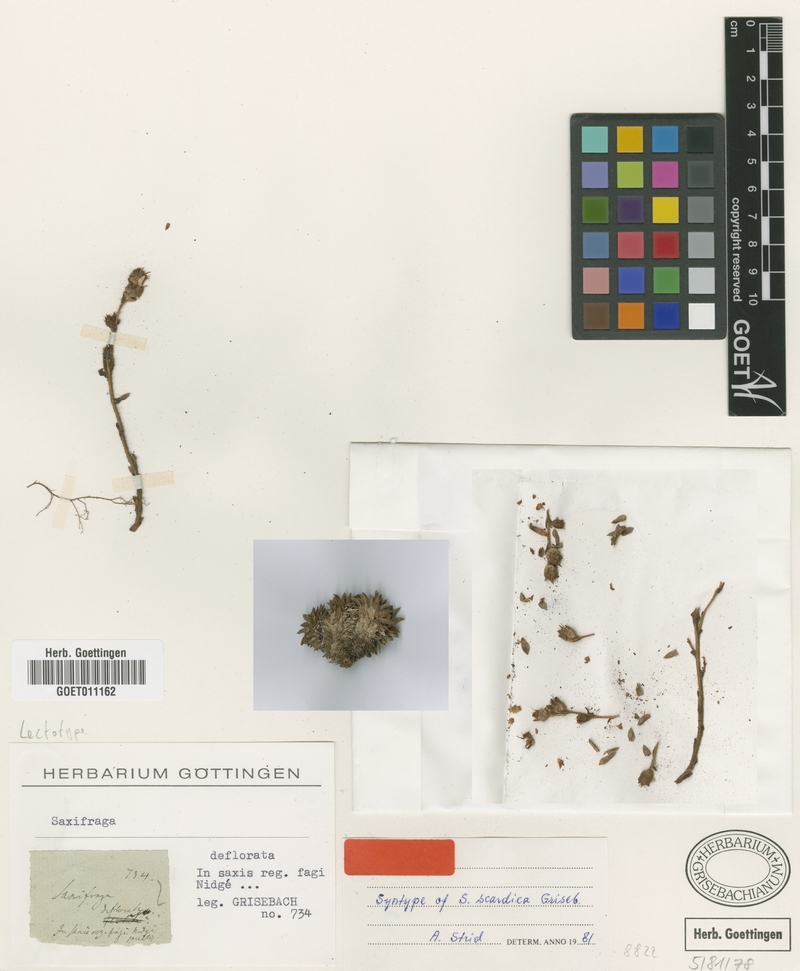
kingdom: Plantae
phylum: Tracheophyta
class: Magnoliopsida
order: Saxifragales
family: Saxifragaceae
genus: Saxifraga
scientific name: Saxifraga scardica
